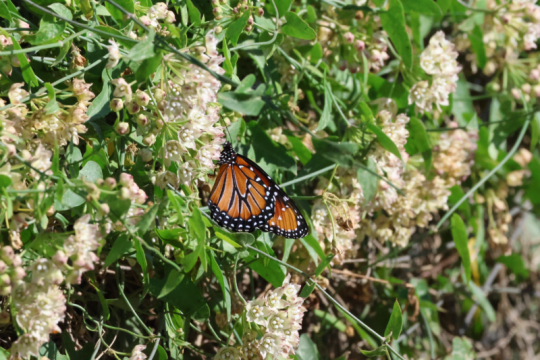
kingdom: Animalia
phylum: Arthropoda
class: Insecta
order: Lepidoptera
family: Nymphalidae
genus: Danaus
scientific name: Danaus gilippus
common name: Queen
